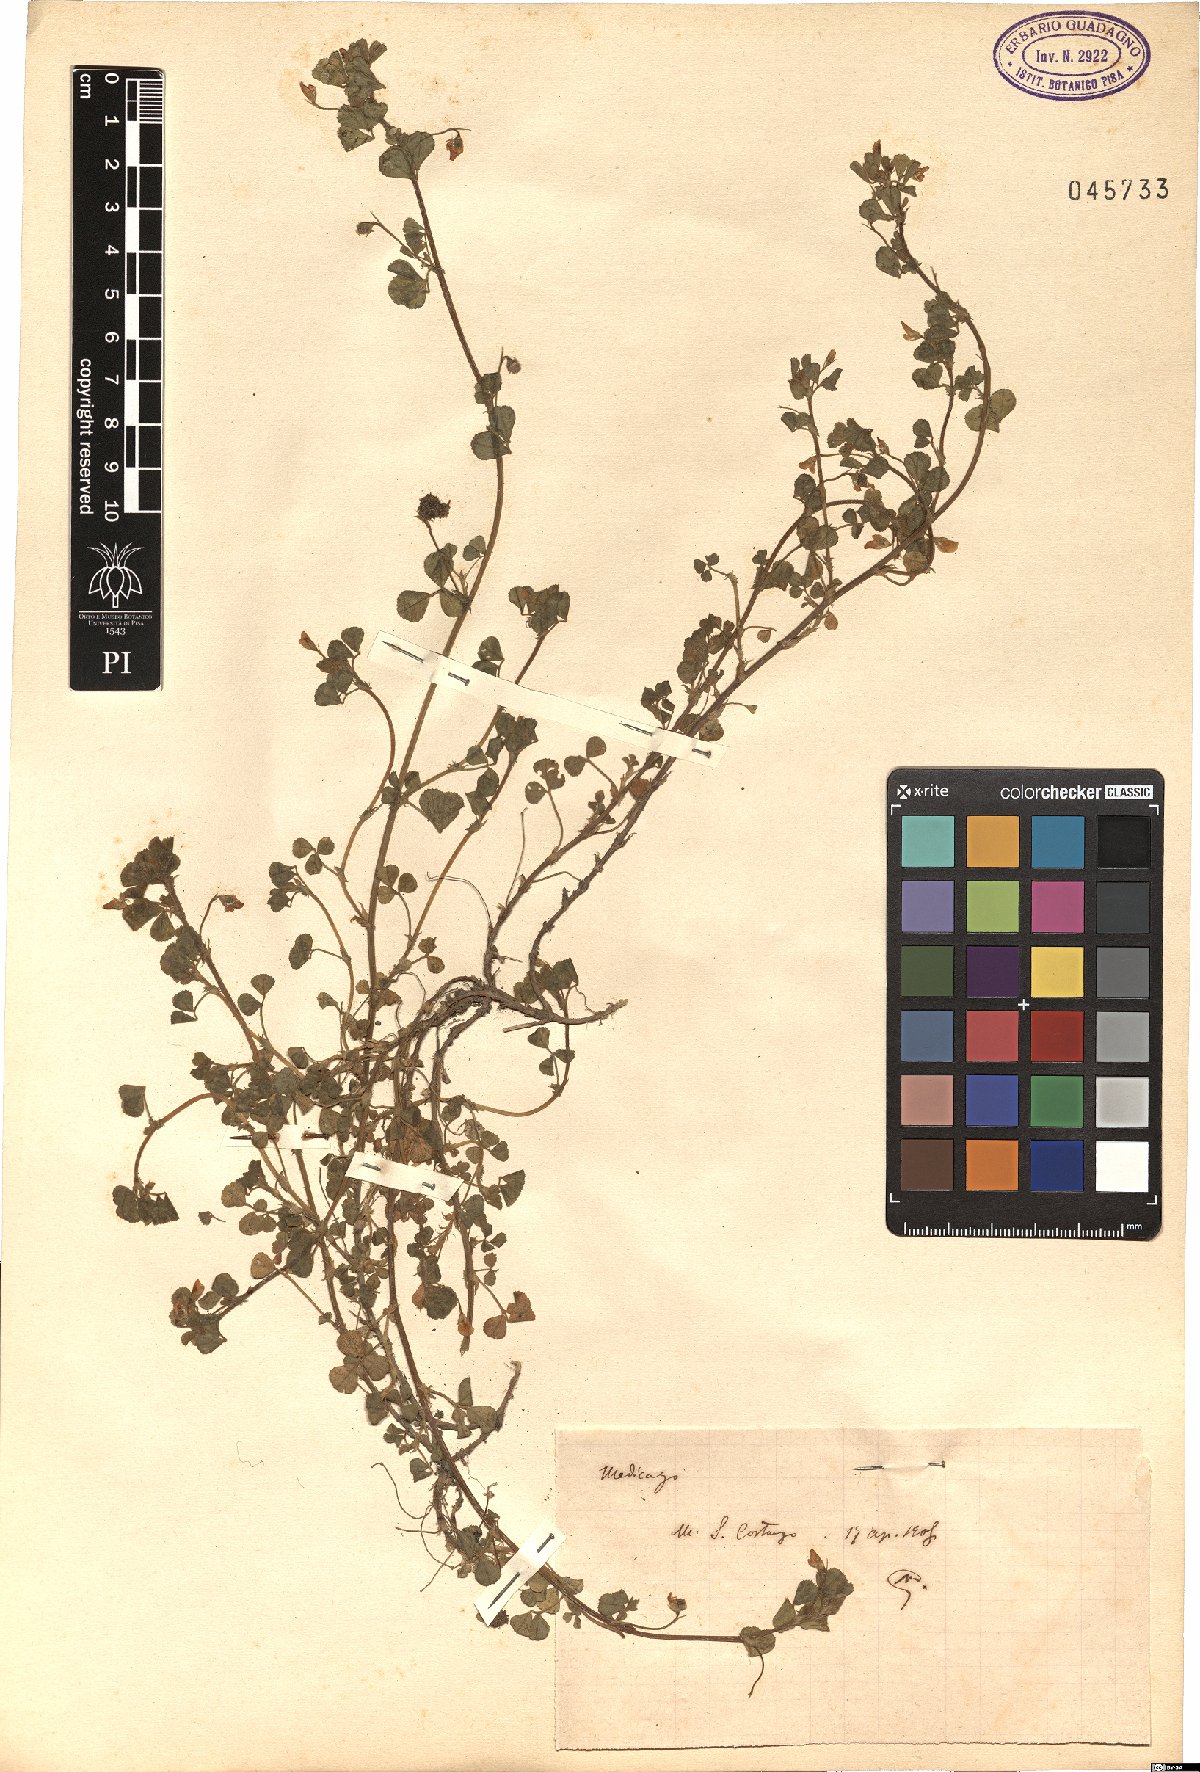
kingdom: Plantae
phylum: Tracheophyta
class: Magnoliopsida
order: Fabales
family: Fabaceae
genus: Medicago
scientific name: Medicago
